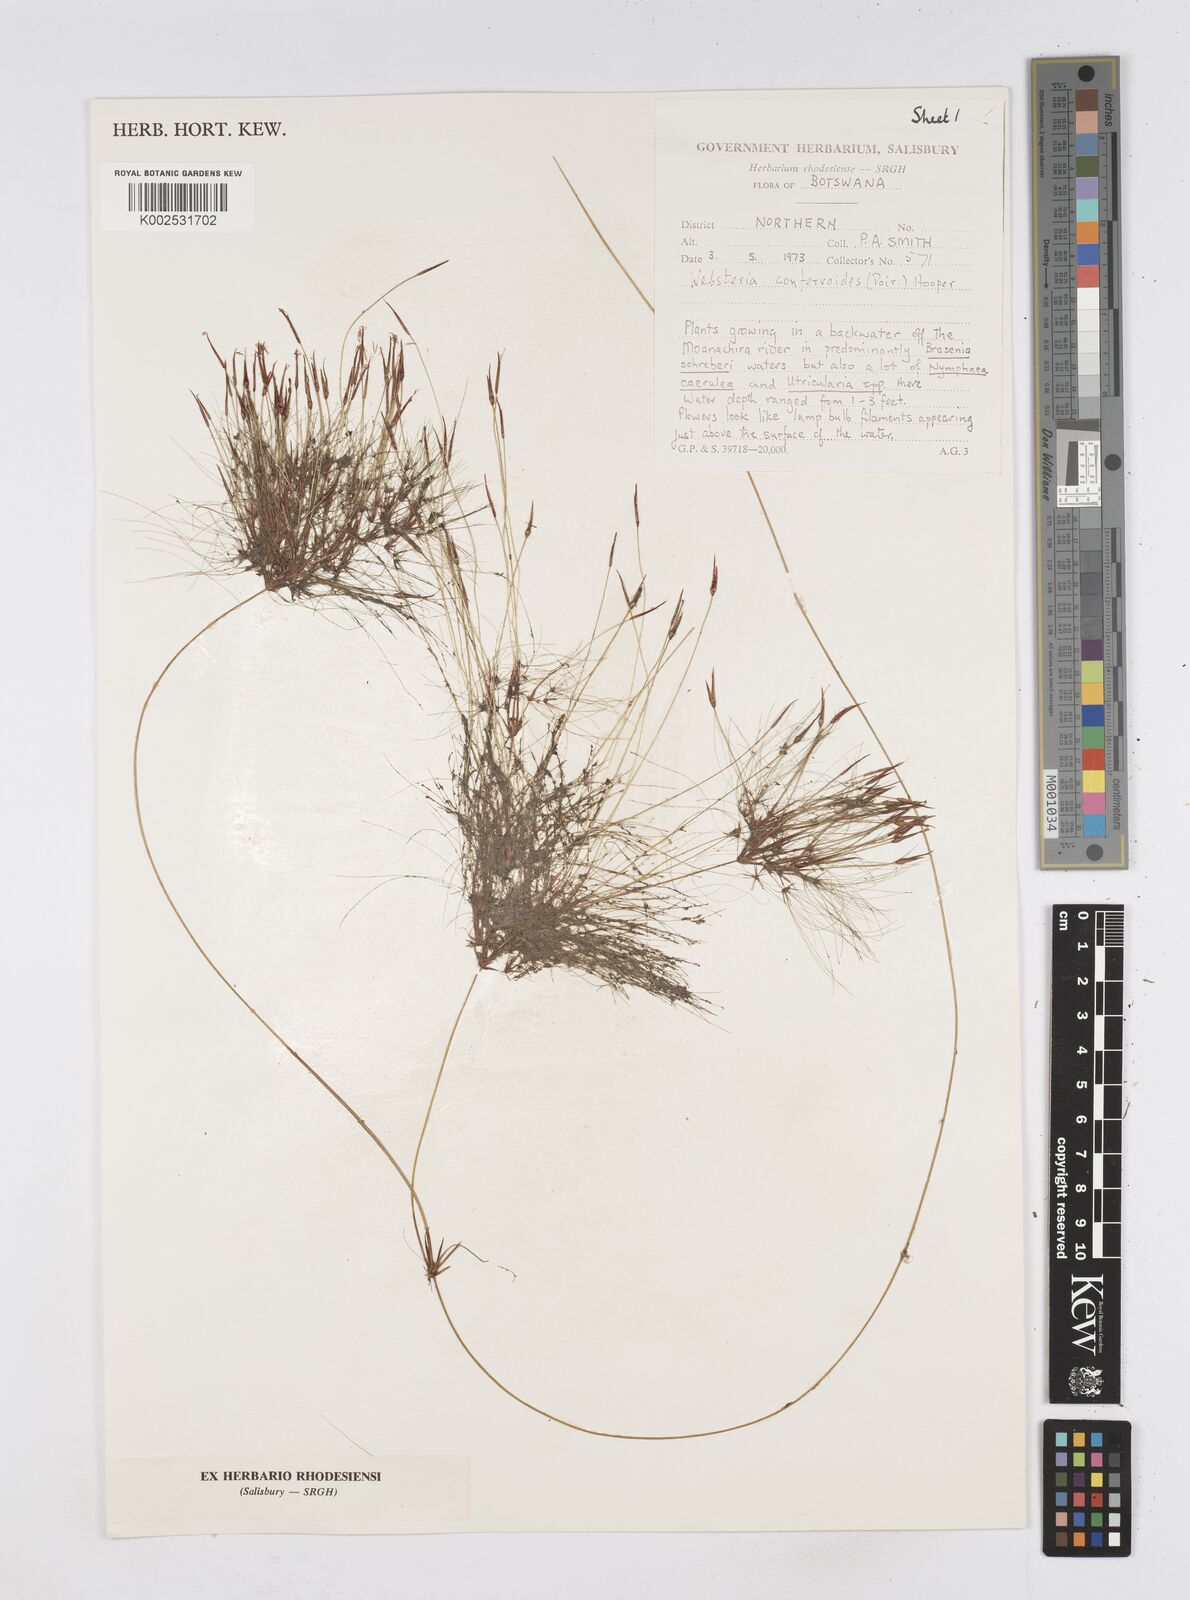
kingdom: Plantae
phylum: Tracheophyta
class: Liliopsida
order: Poales
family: Cyperaceae
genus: Eleocharis
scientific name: Eleocharis confervoides
